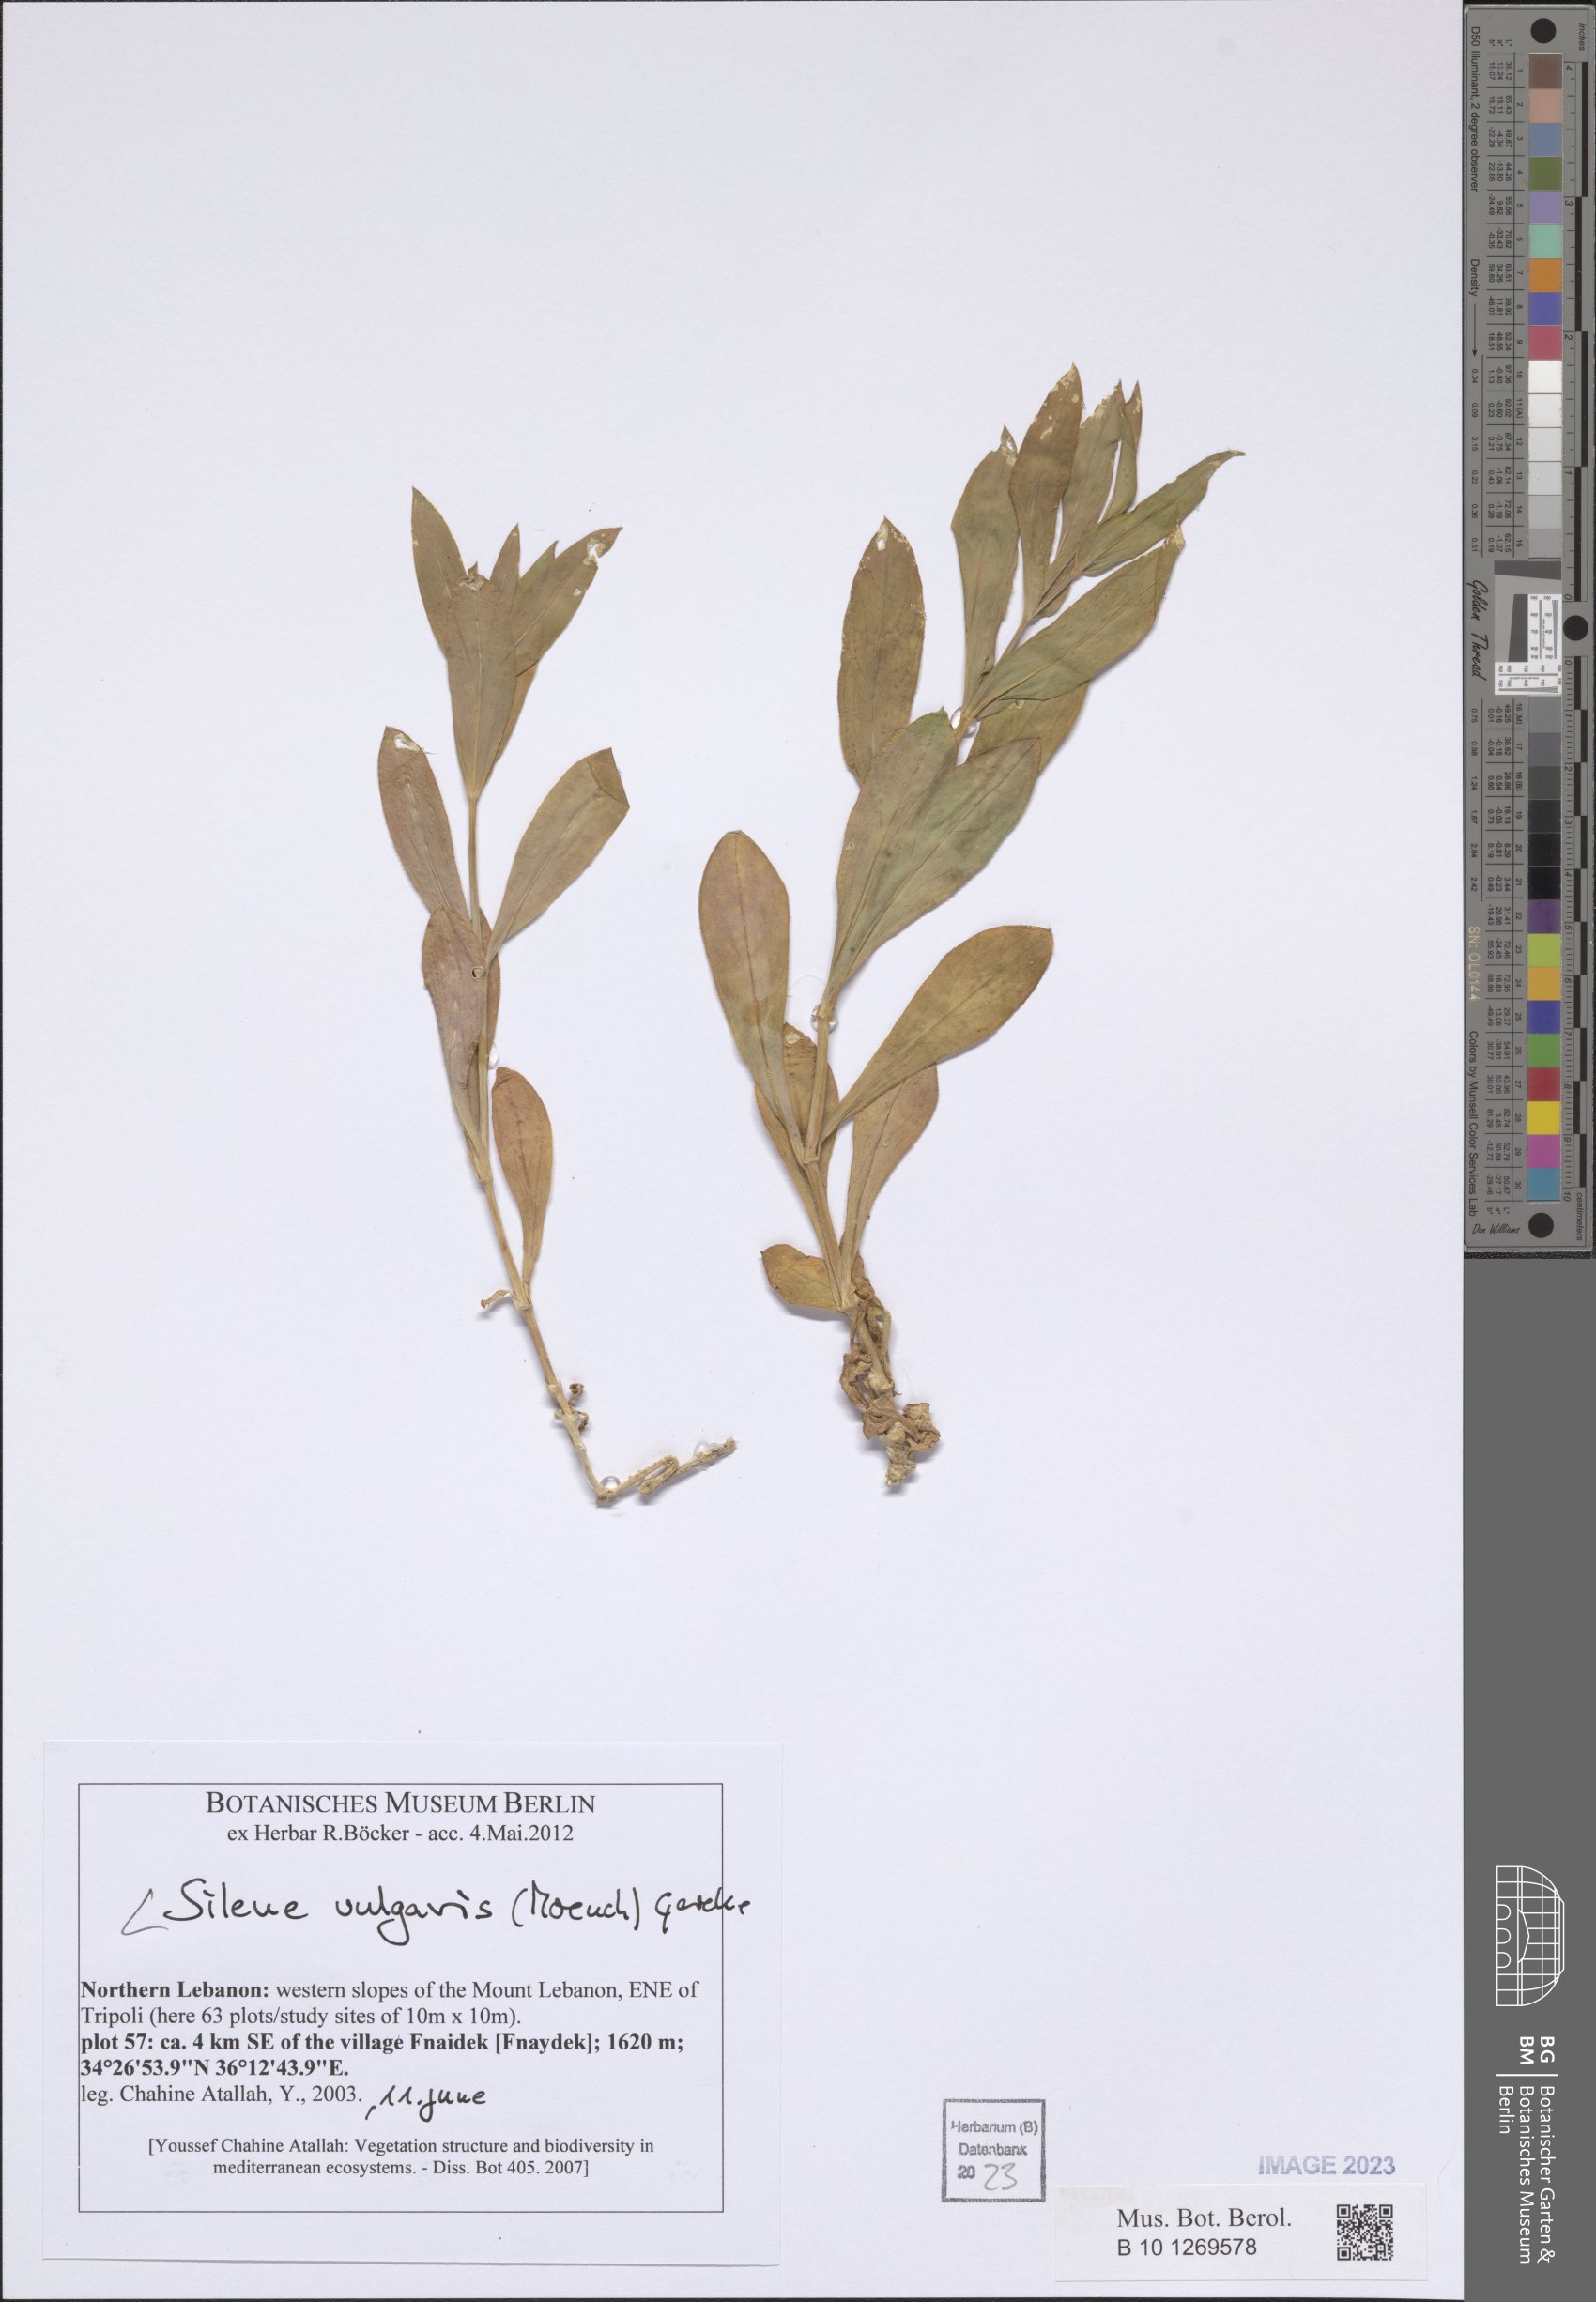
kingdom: Plantae
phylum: Tracheophyta
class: Magnoliopsida
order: Caryophyllales
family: Caryophyllaceae
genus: Silene
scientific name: Silene vulgaris
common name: Bladder campion
